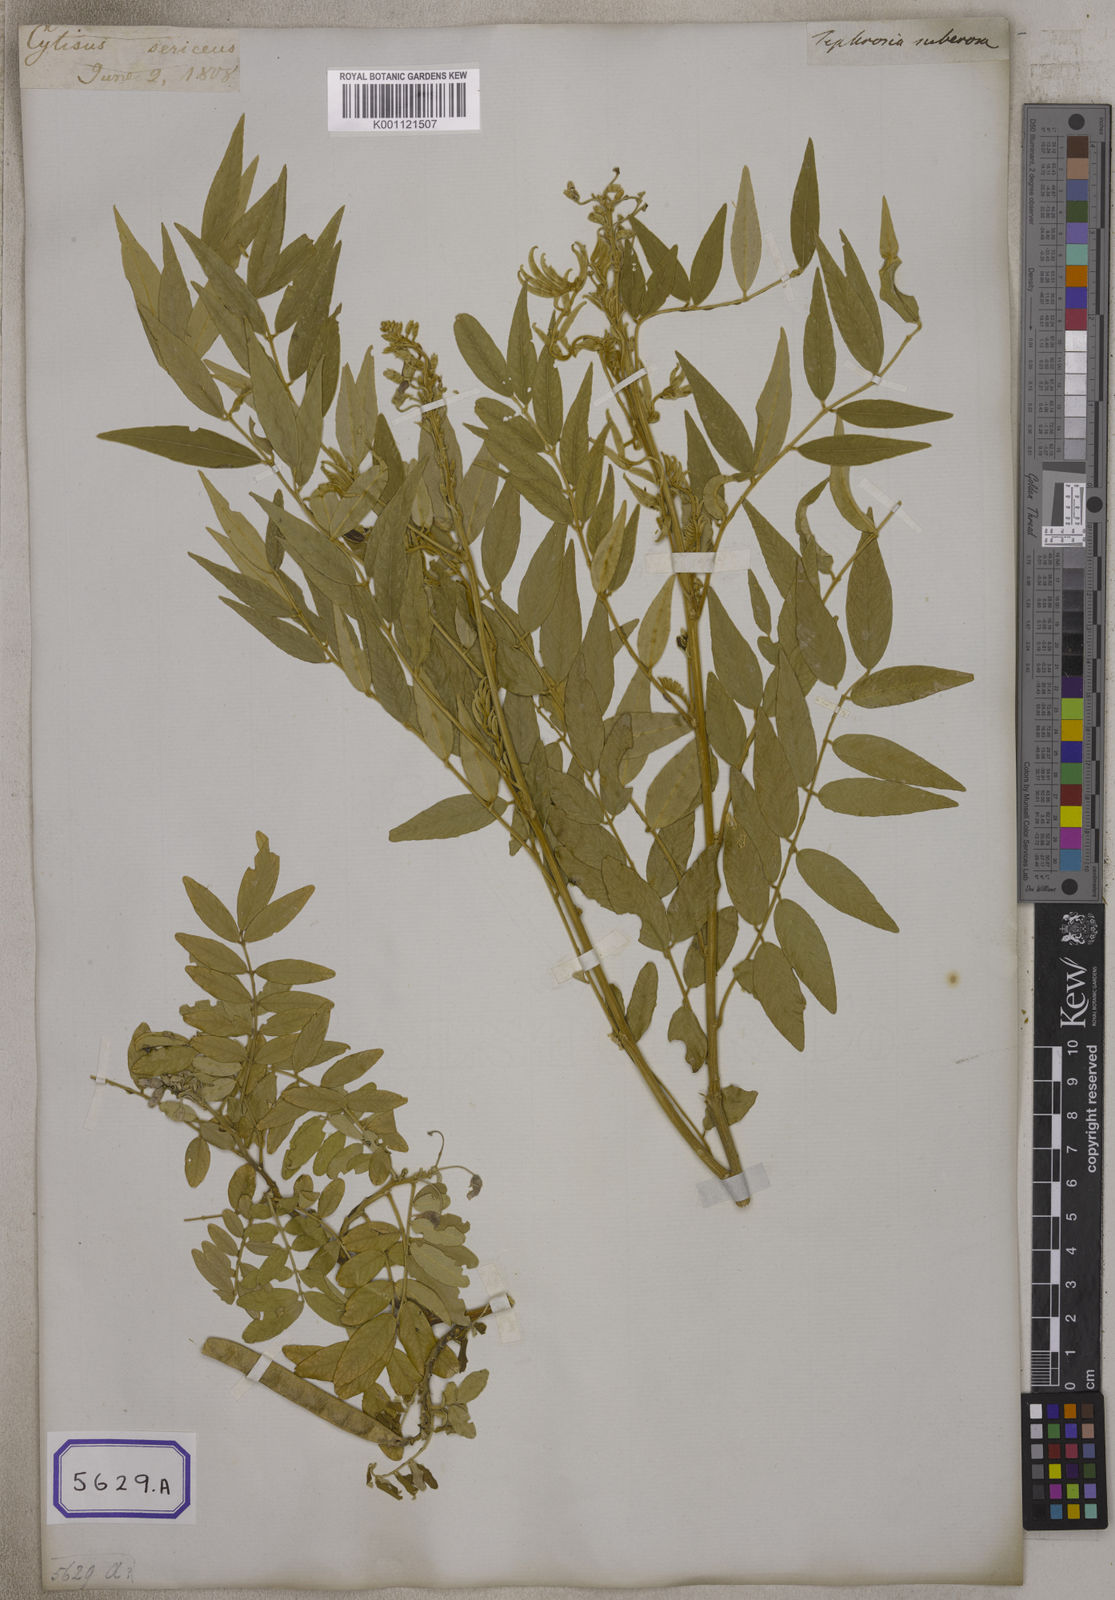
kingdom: Plantae
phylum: Tracheophyta
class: Magnoliopsida
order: Fabales
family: Fabaceae
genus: Mundulea
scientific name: Mundulea sericea
